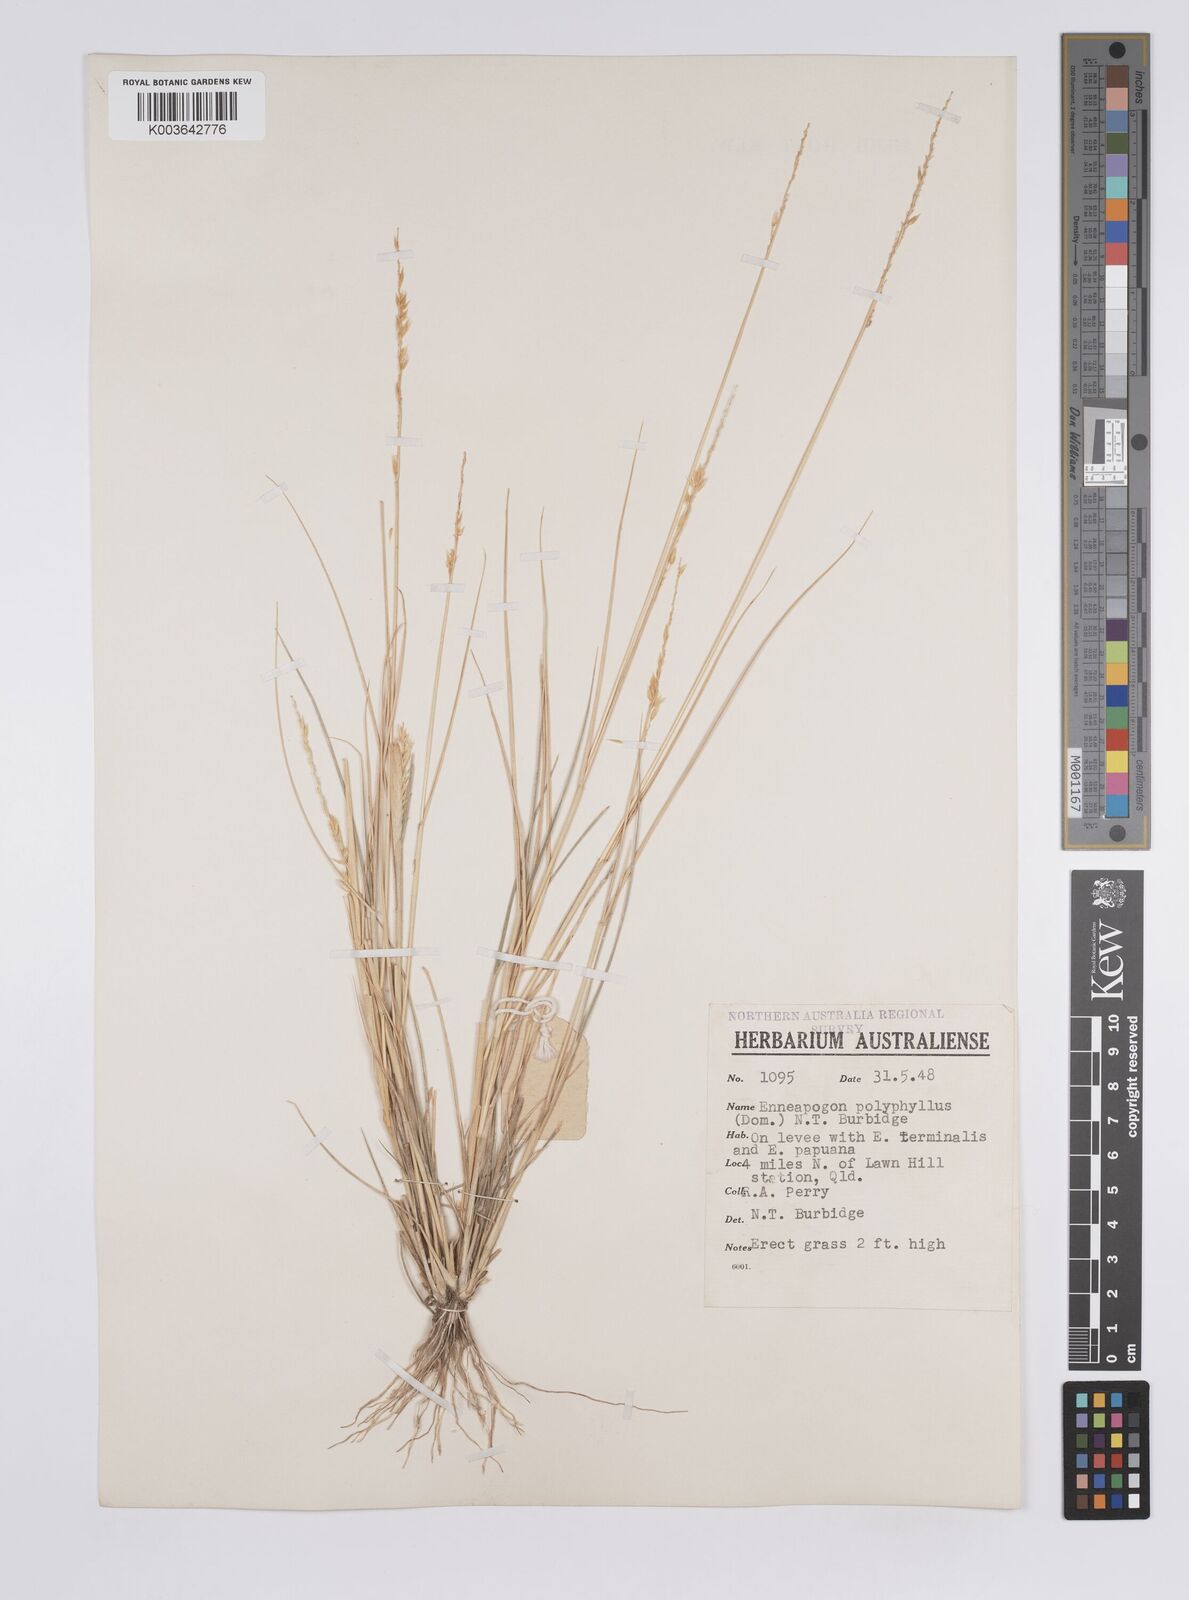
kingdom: Plantae
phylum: Tracheophyta
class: Liliopsida
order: Poales
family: Poaceae
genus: Enneapogon
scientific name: Enneapogon polyphyllus
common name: Leafy nineawn
